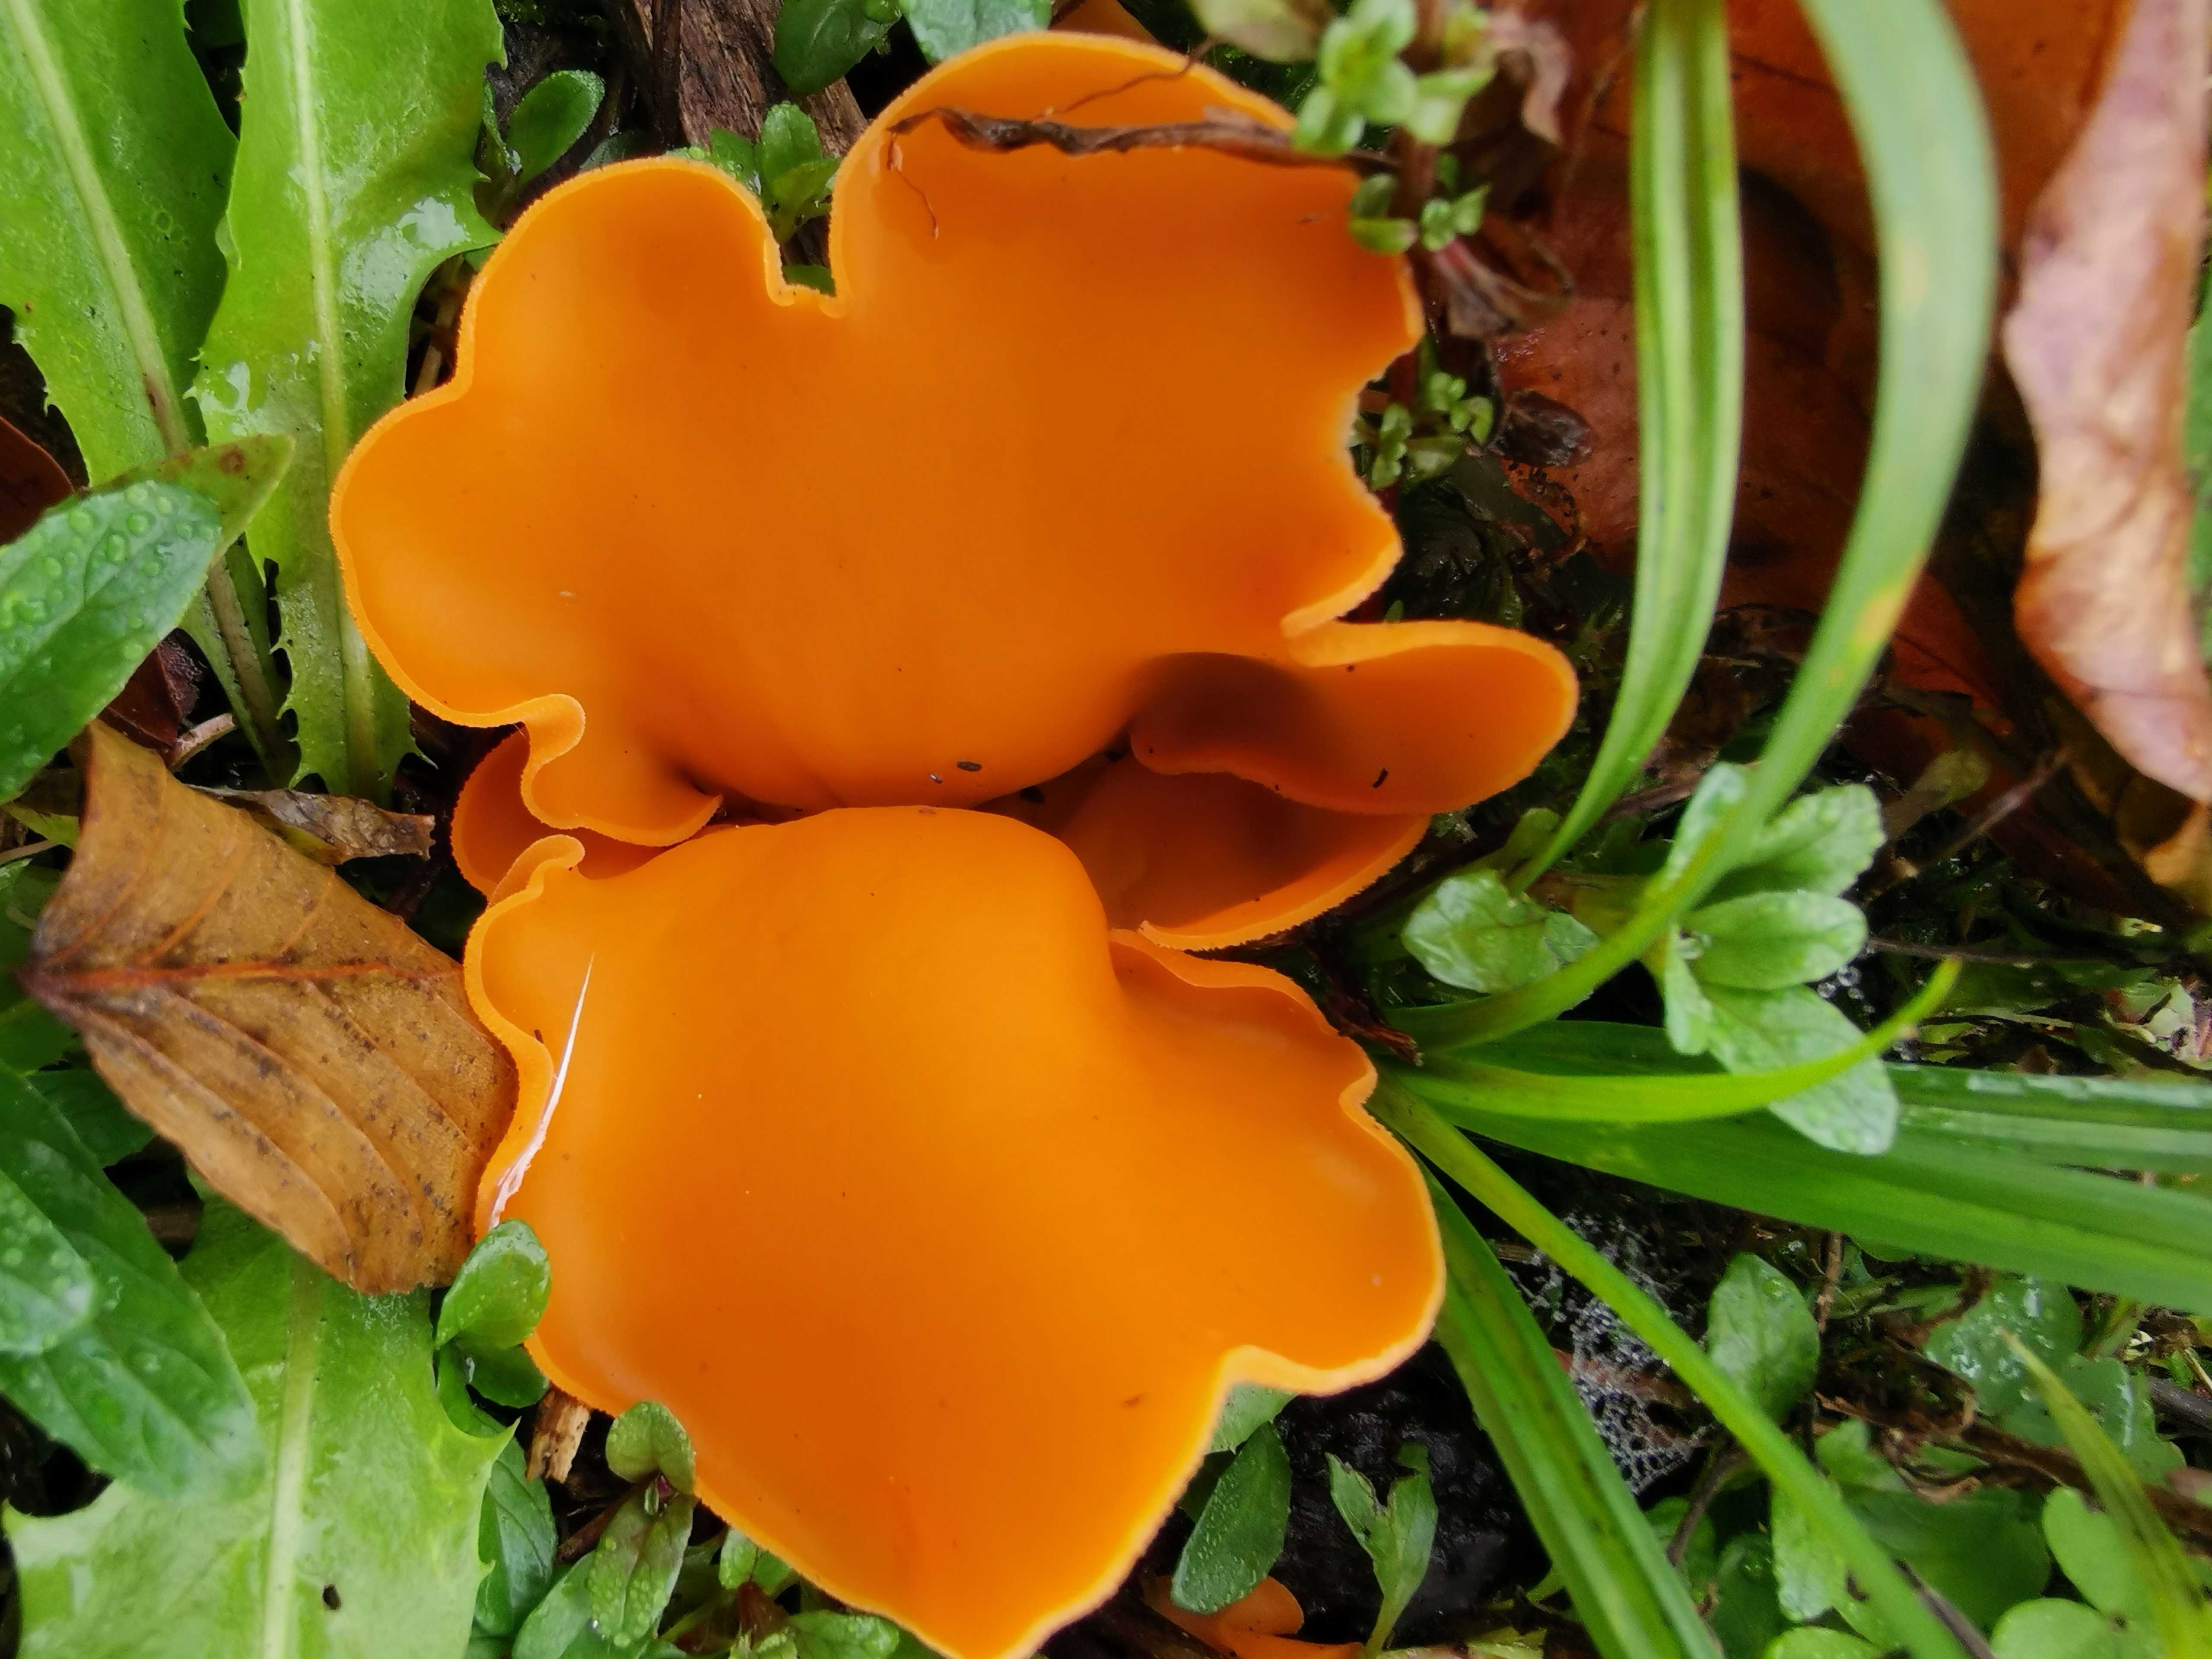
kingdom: Fungi
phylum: Ascomycota
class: Pezizomycetes
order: Pezizales
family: Pyronemataceae
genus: Aleuria
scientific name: Aleuria aurantia
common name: almindelig orangebæger
